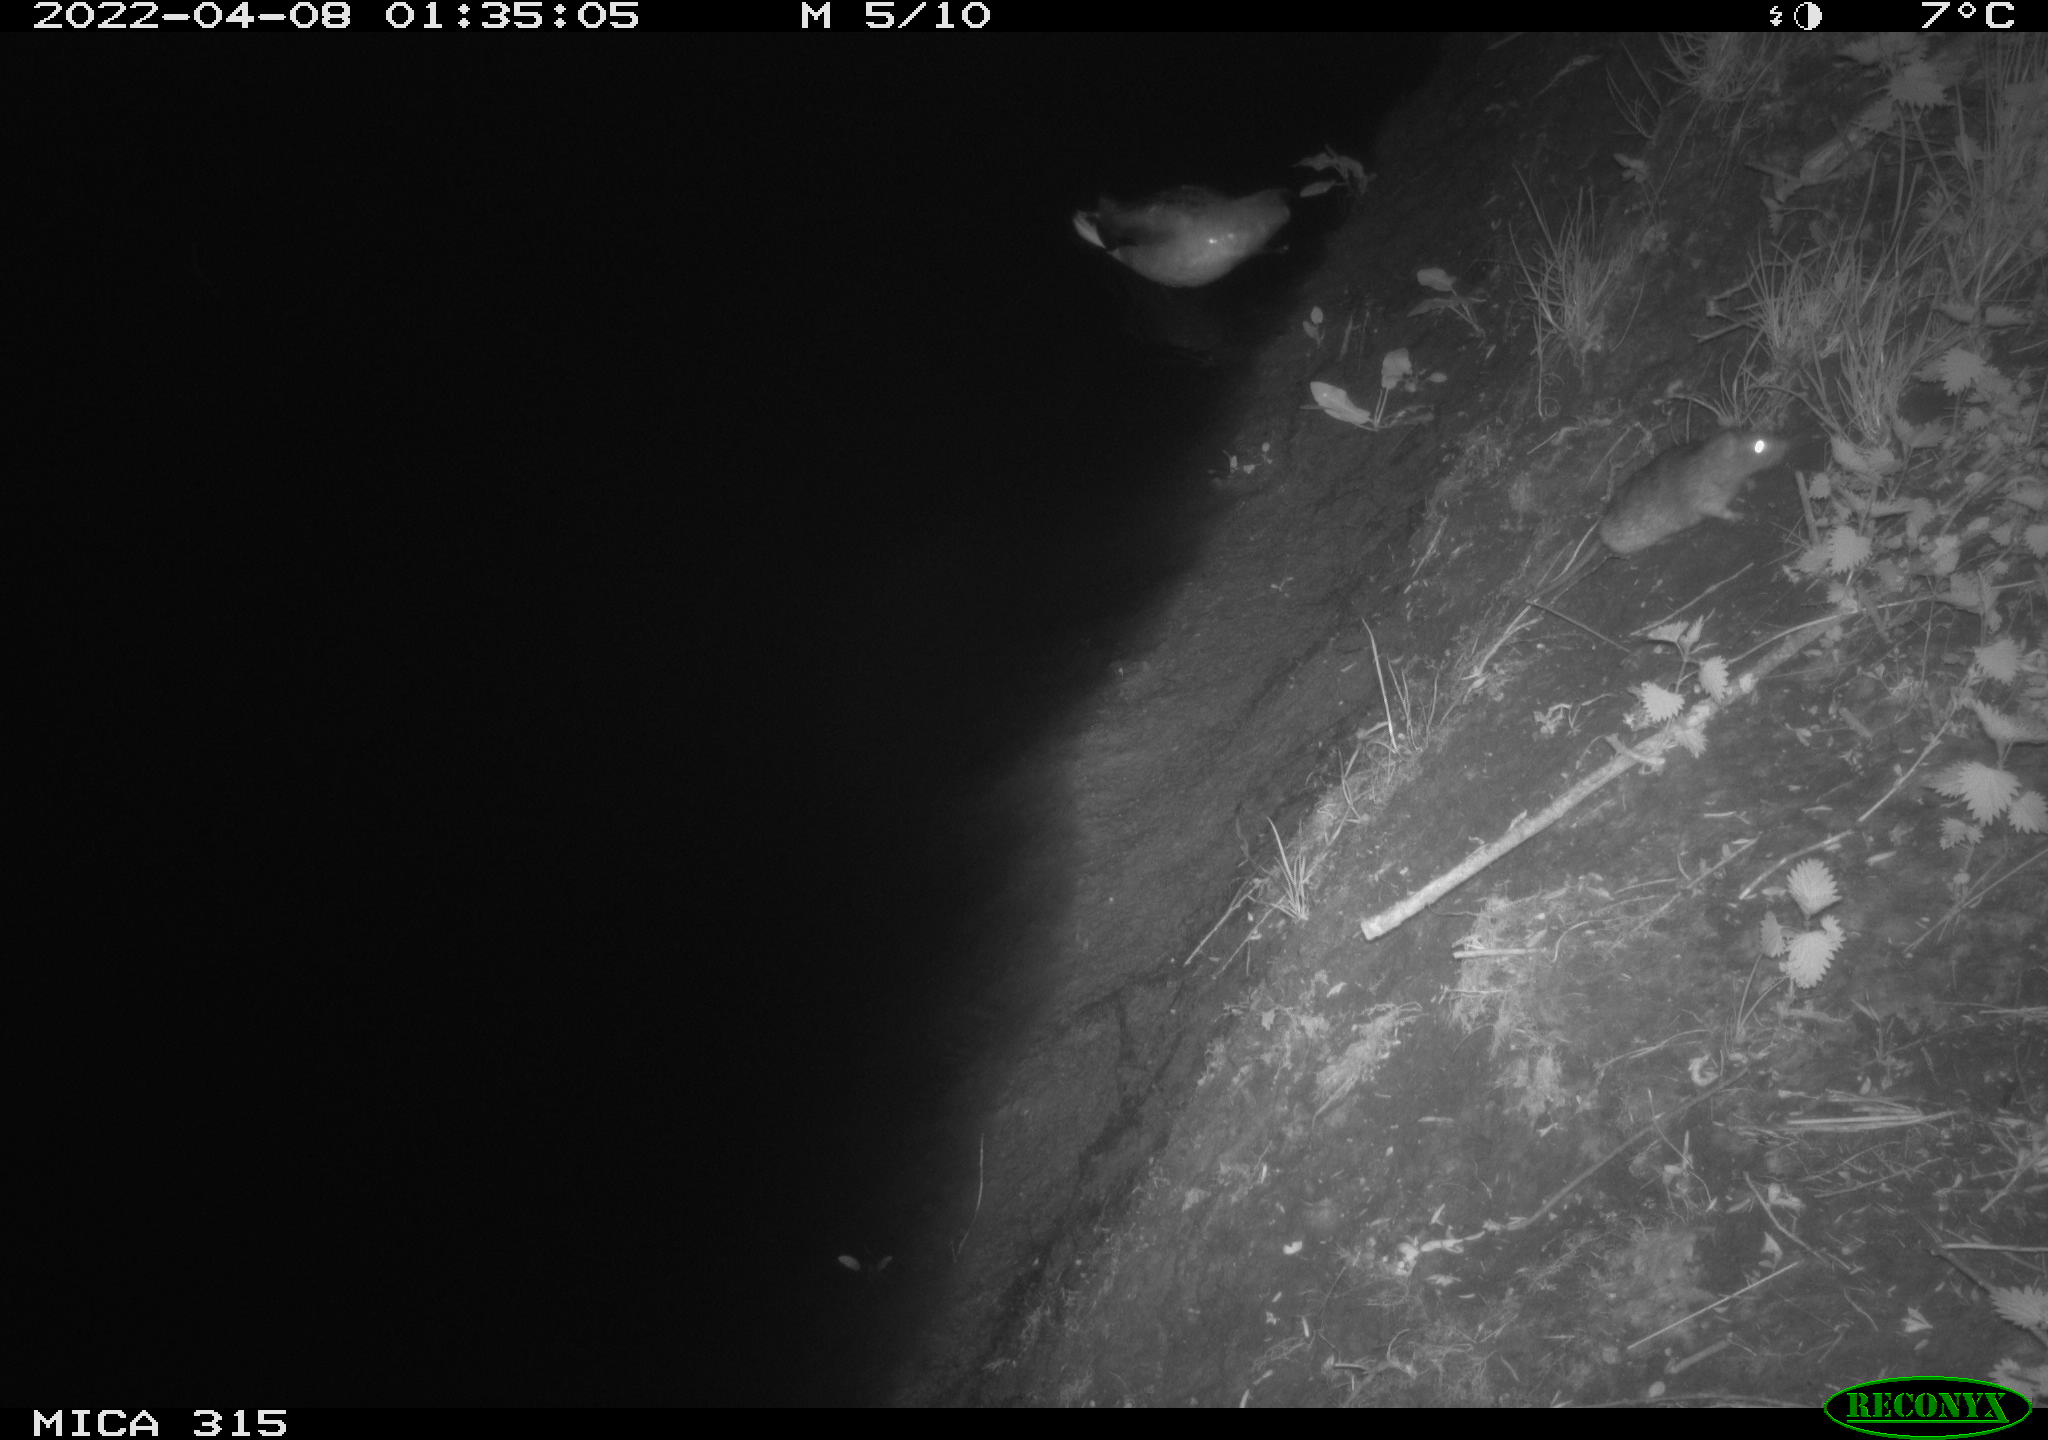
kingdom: Animalia
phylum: Chordata
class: Aves
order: Anseriformes
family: Anatidae
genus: Anas
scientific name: Anas platyrhynchos
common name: Mallard
